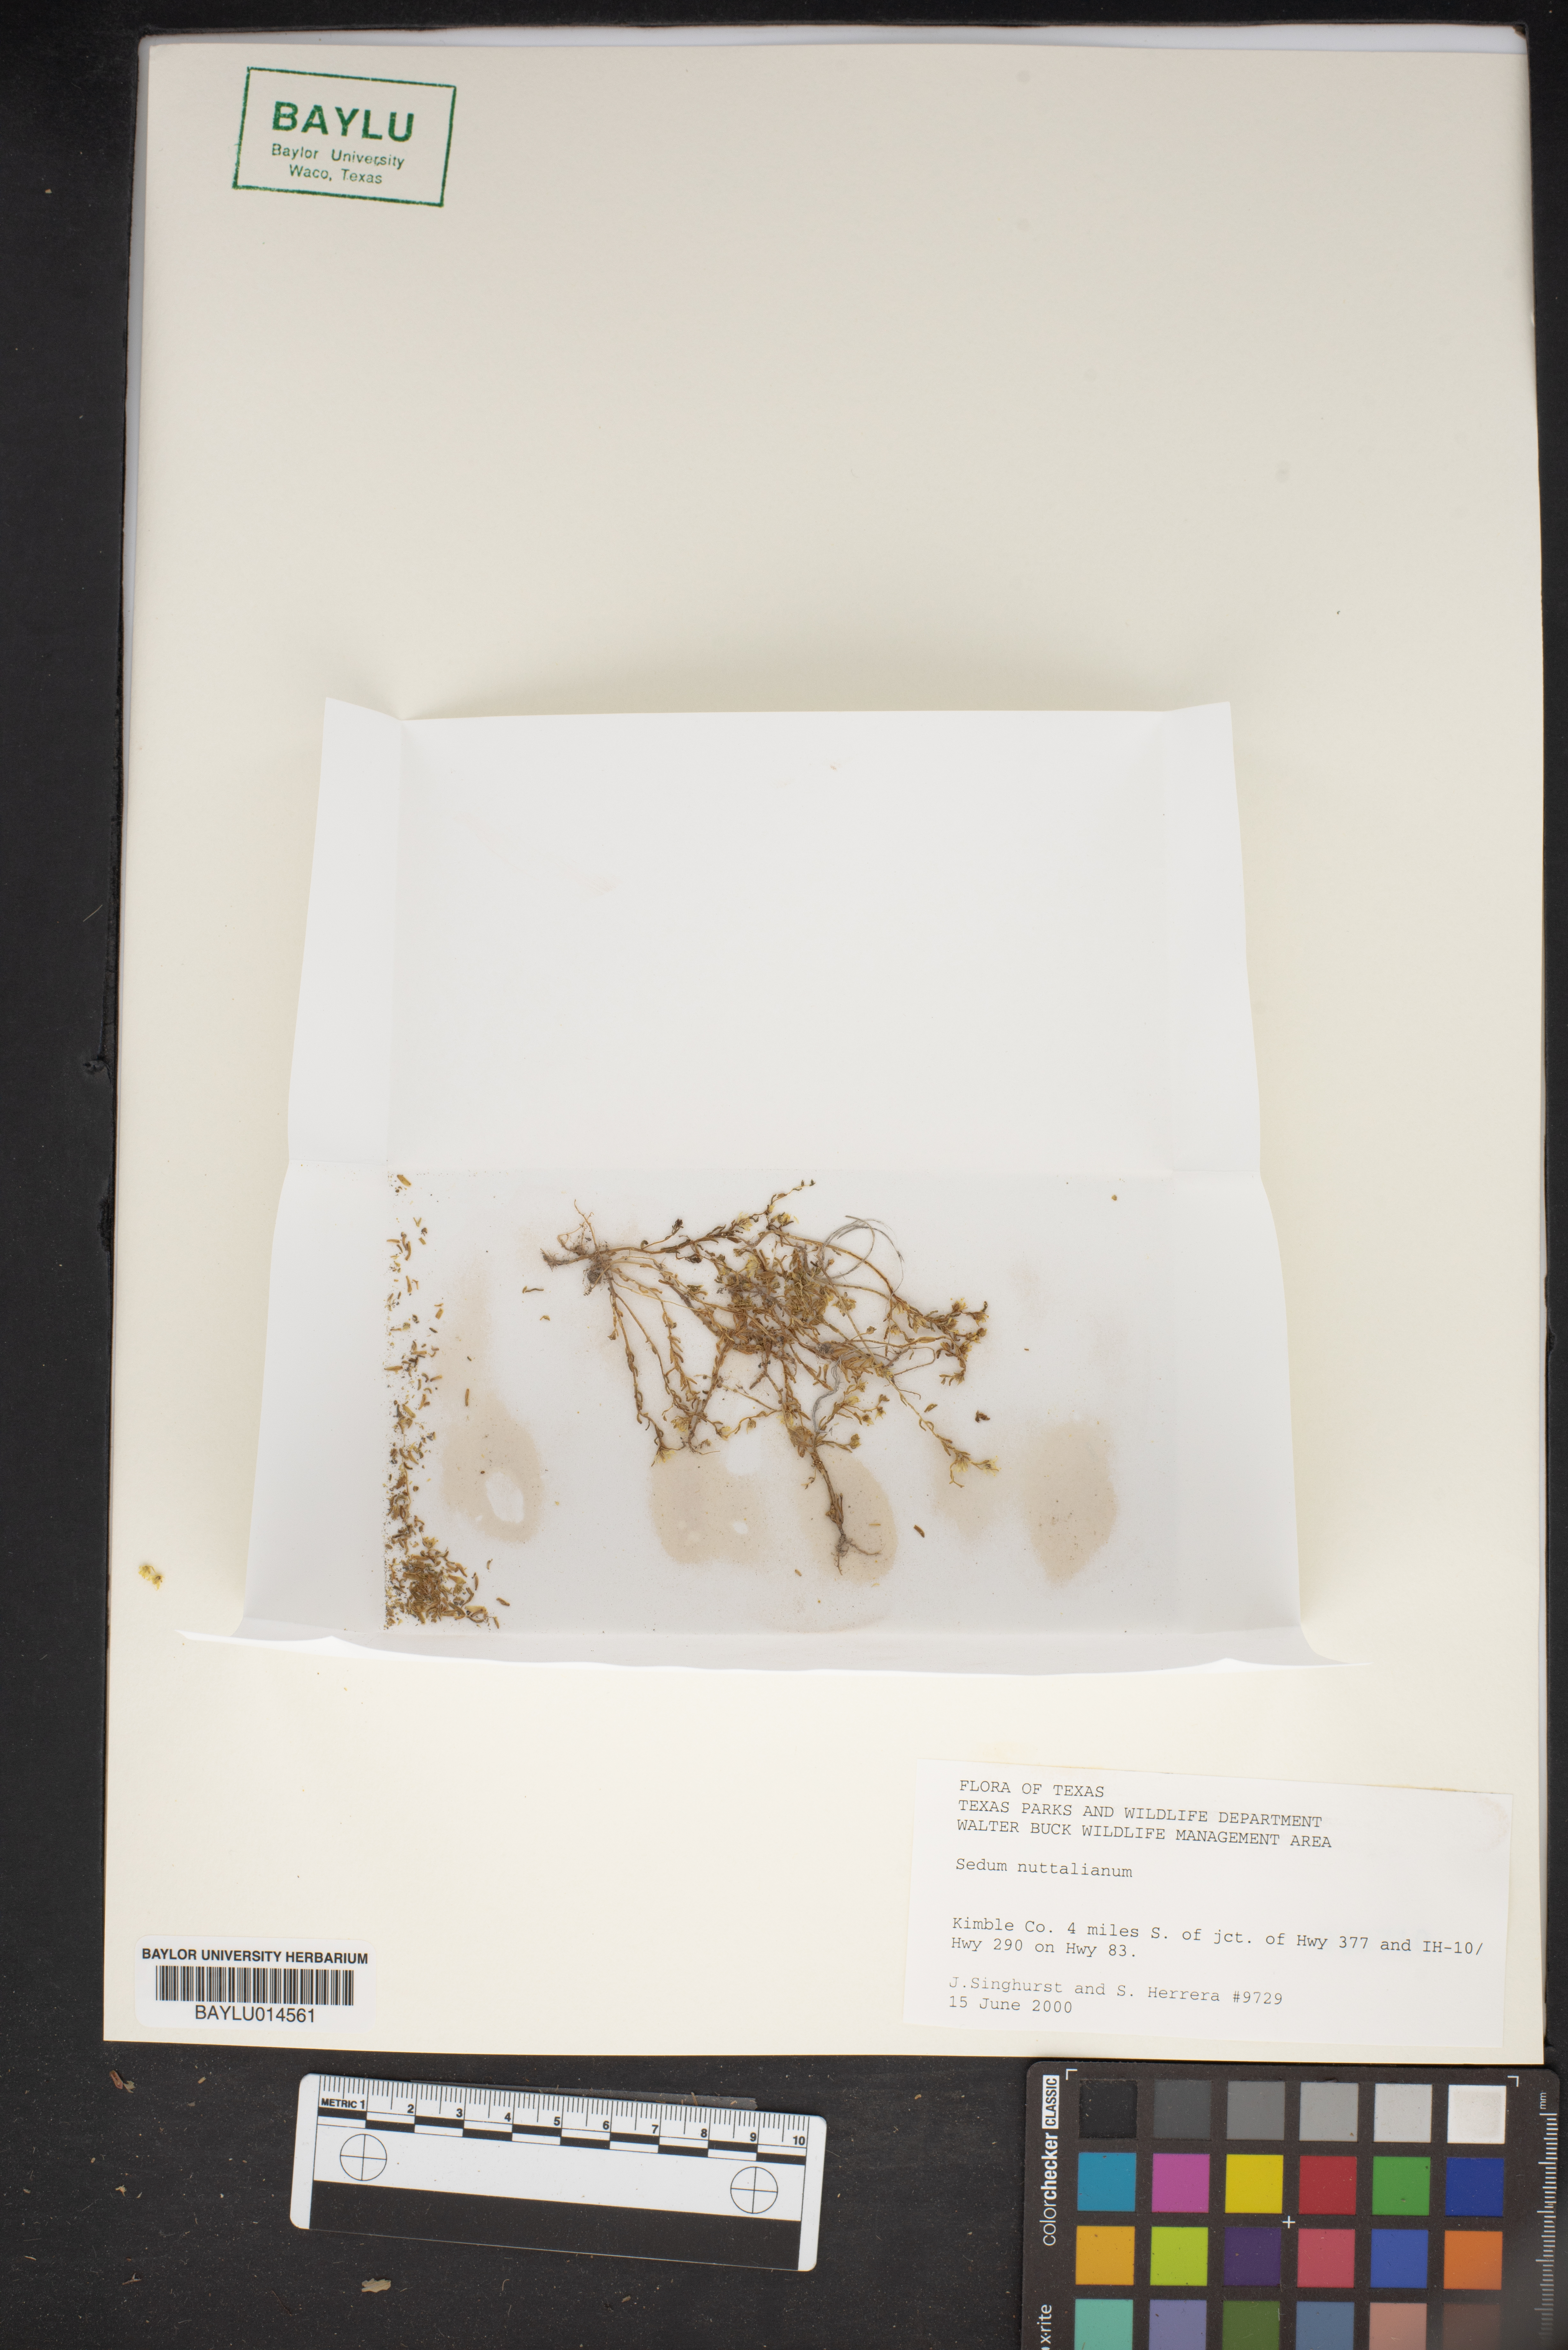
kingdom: Plantae
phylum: Tracheophyta
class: Magnoliopsida
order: Saxifragales
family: Crassulaceae
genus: Sedum
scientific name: Sedum nuttallii
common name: Yellow stonecrop
